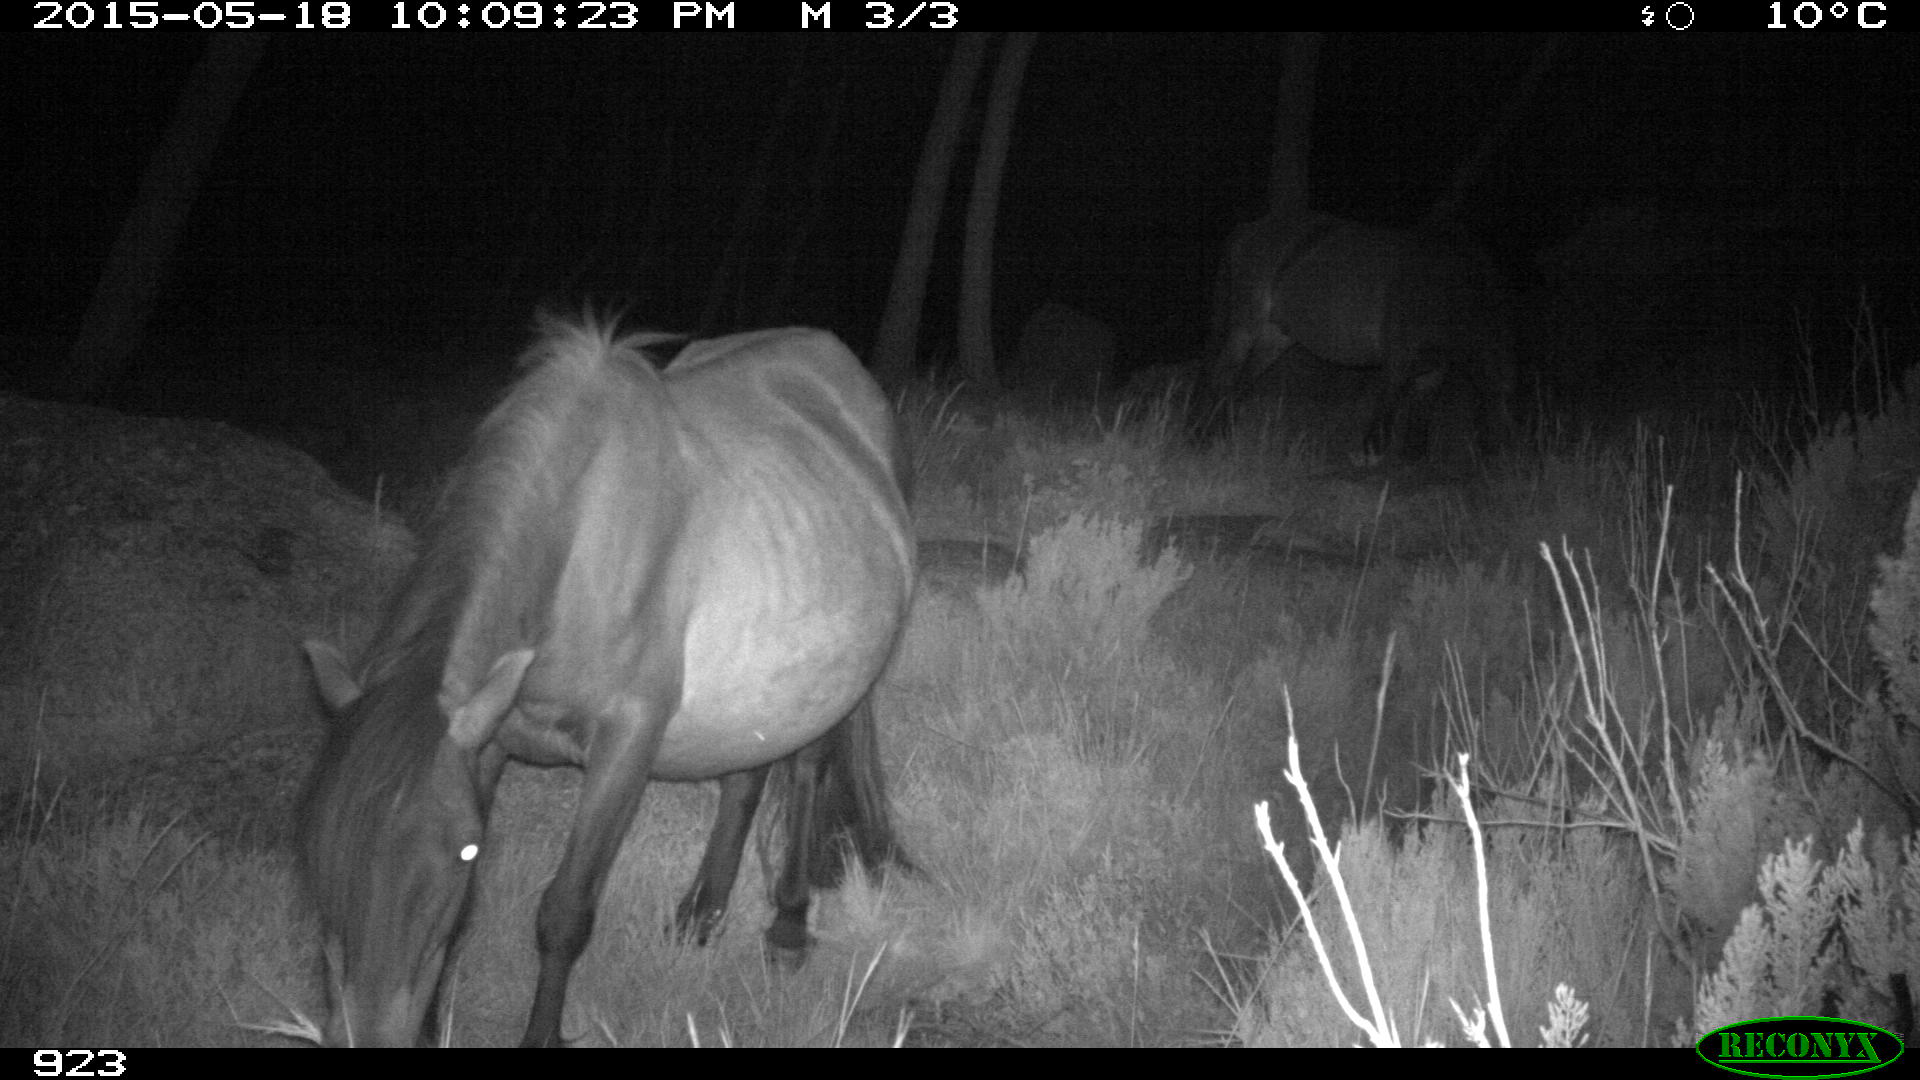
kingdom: Animalia
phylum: Chordata
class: Mammalia
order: Perissodactyla
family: Equidae
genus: Equus
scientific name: Equus caballus
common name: Horse
